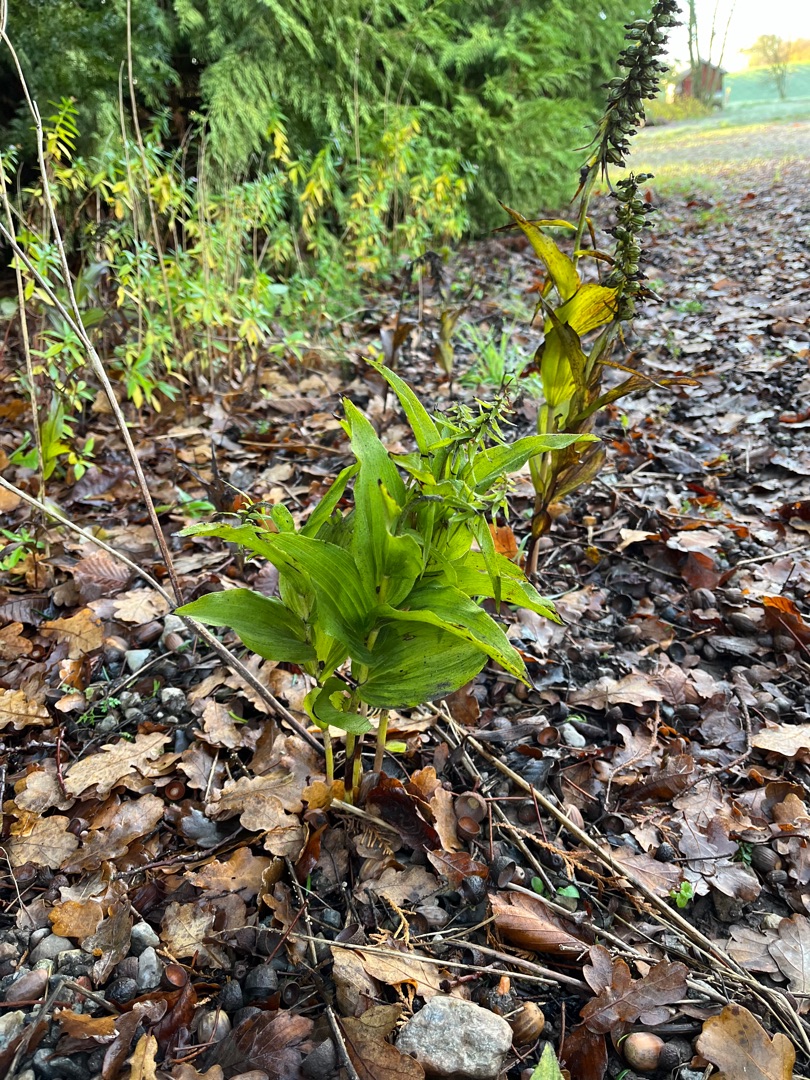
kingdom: Plantae
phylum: Tracheophyta
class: Liliopsida
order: Asparagales
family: Orchidaceae
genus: Epipactis
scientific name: Epipactis helleborine
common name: Skov-hullæbe
